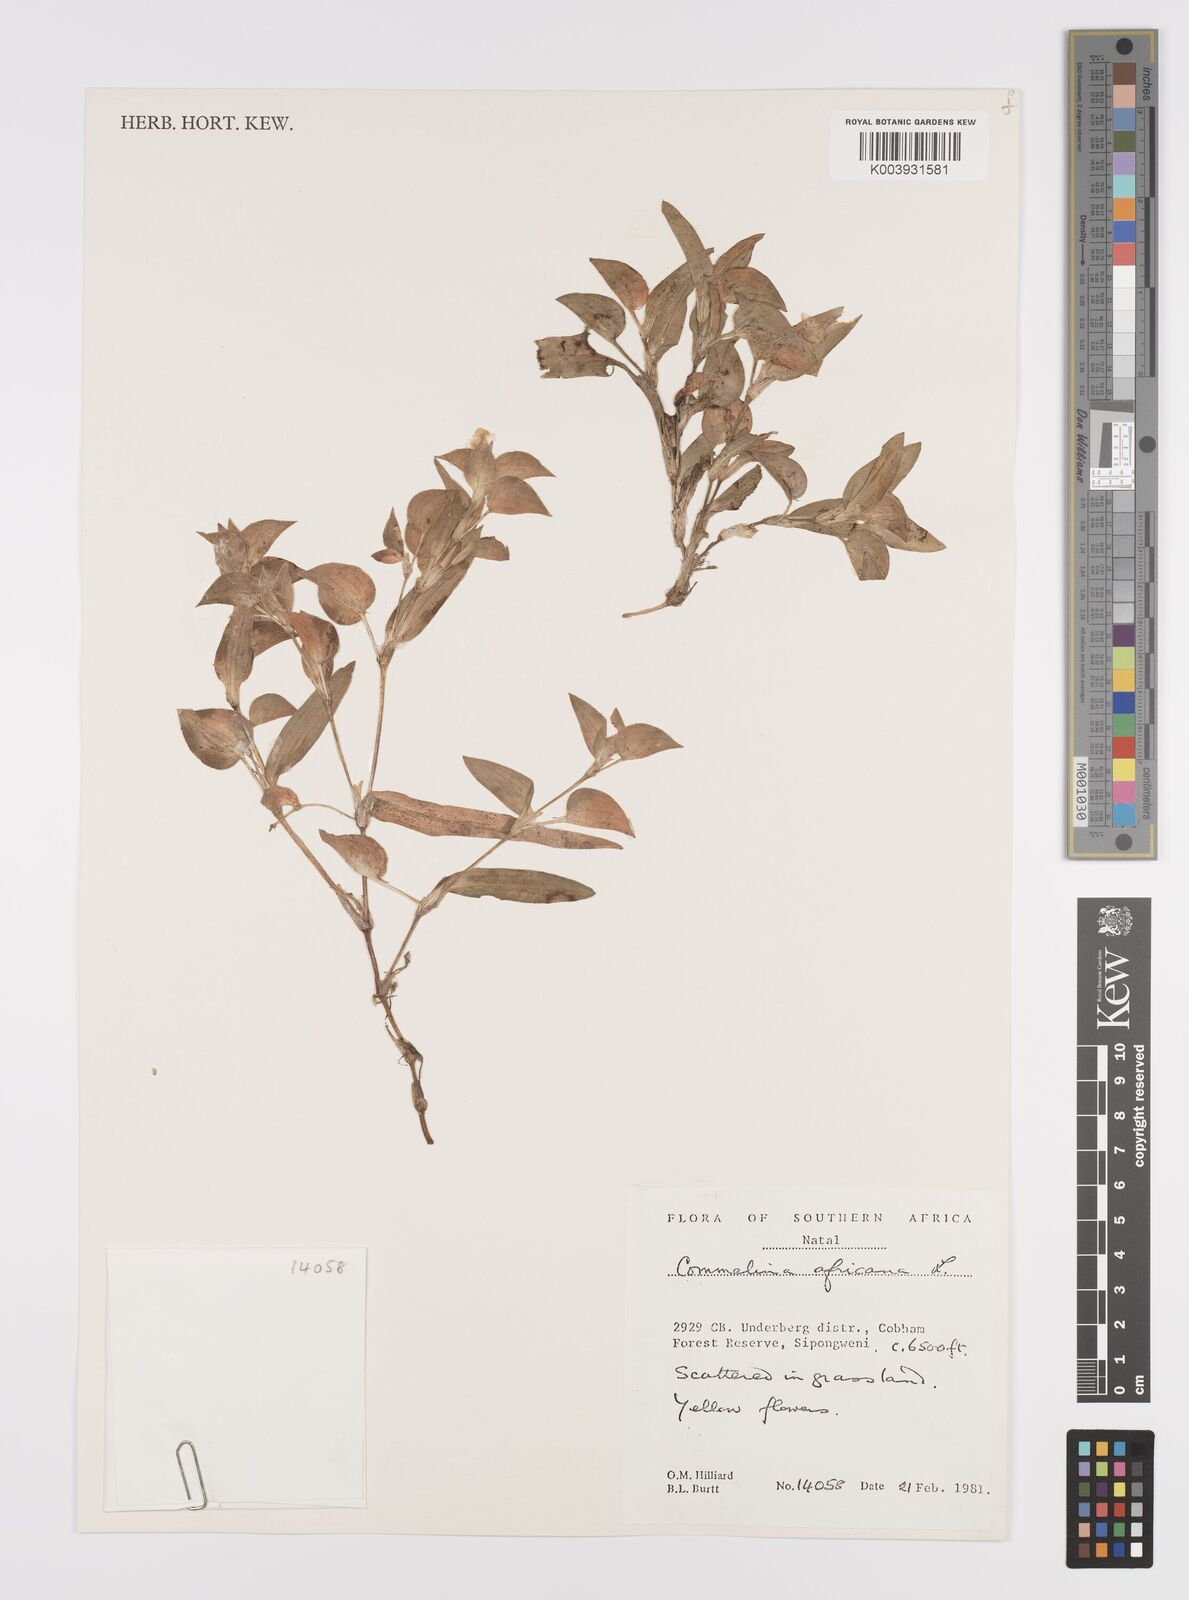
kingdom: Plantae
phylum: Tracheophyta
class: Liliopsida
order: Commelinales
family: Commelinaceae
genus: Commelina
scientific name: Commelina africana
